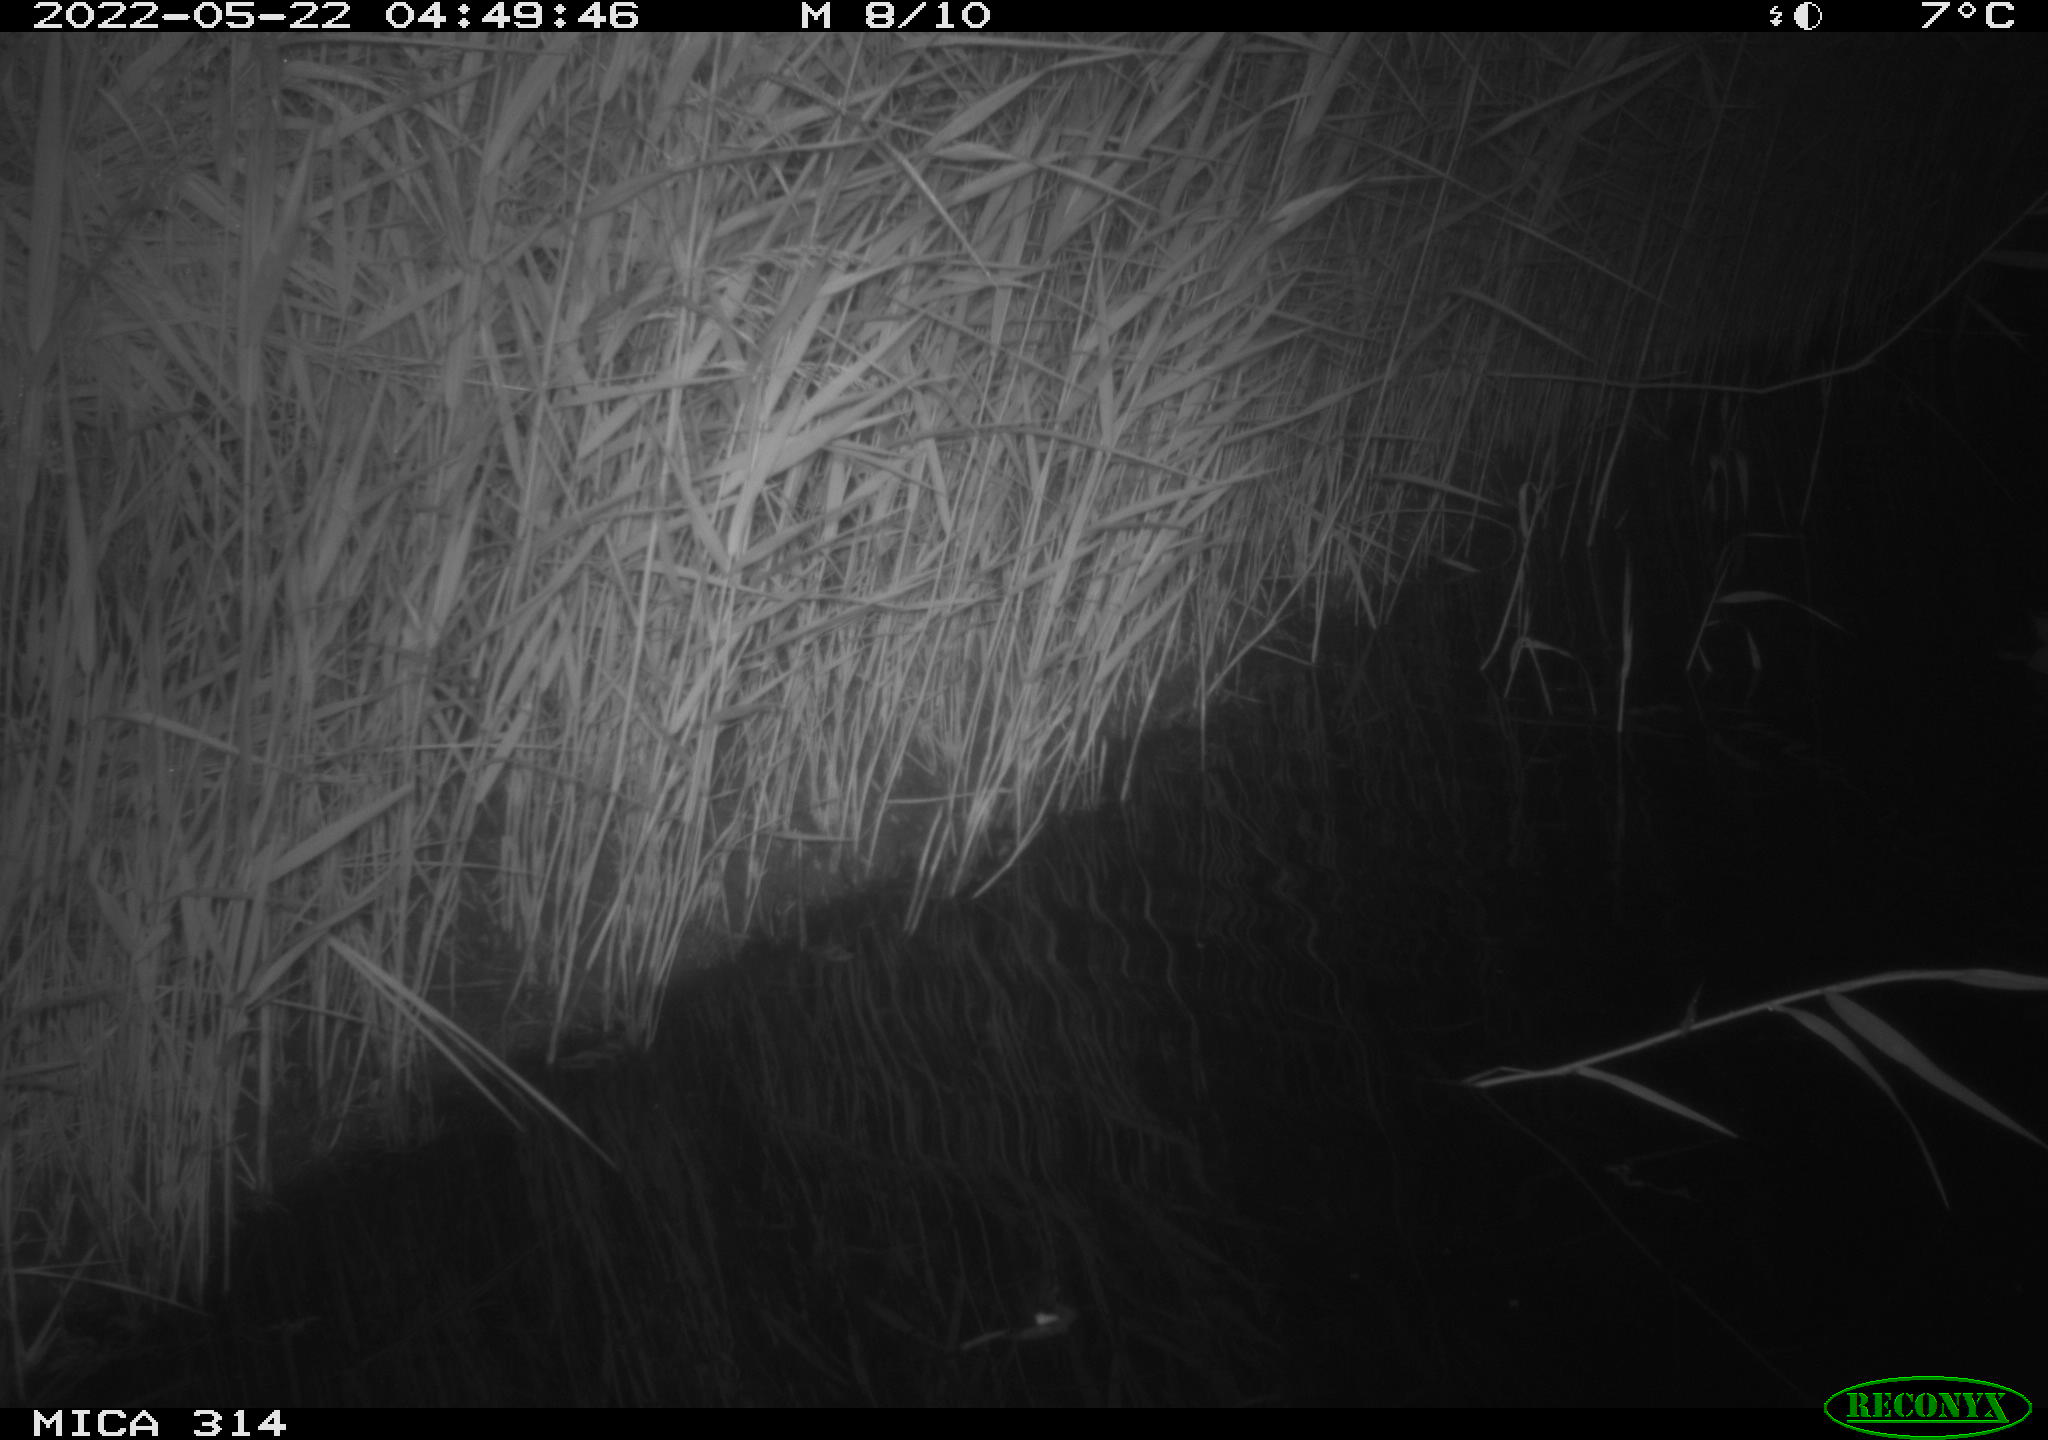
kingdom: Animalia
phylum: Chordata
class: Aves
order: Anseriformes
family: Anatidae
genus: Anas
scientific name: Anas platyrhynchos
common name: Mallard
